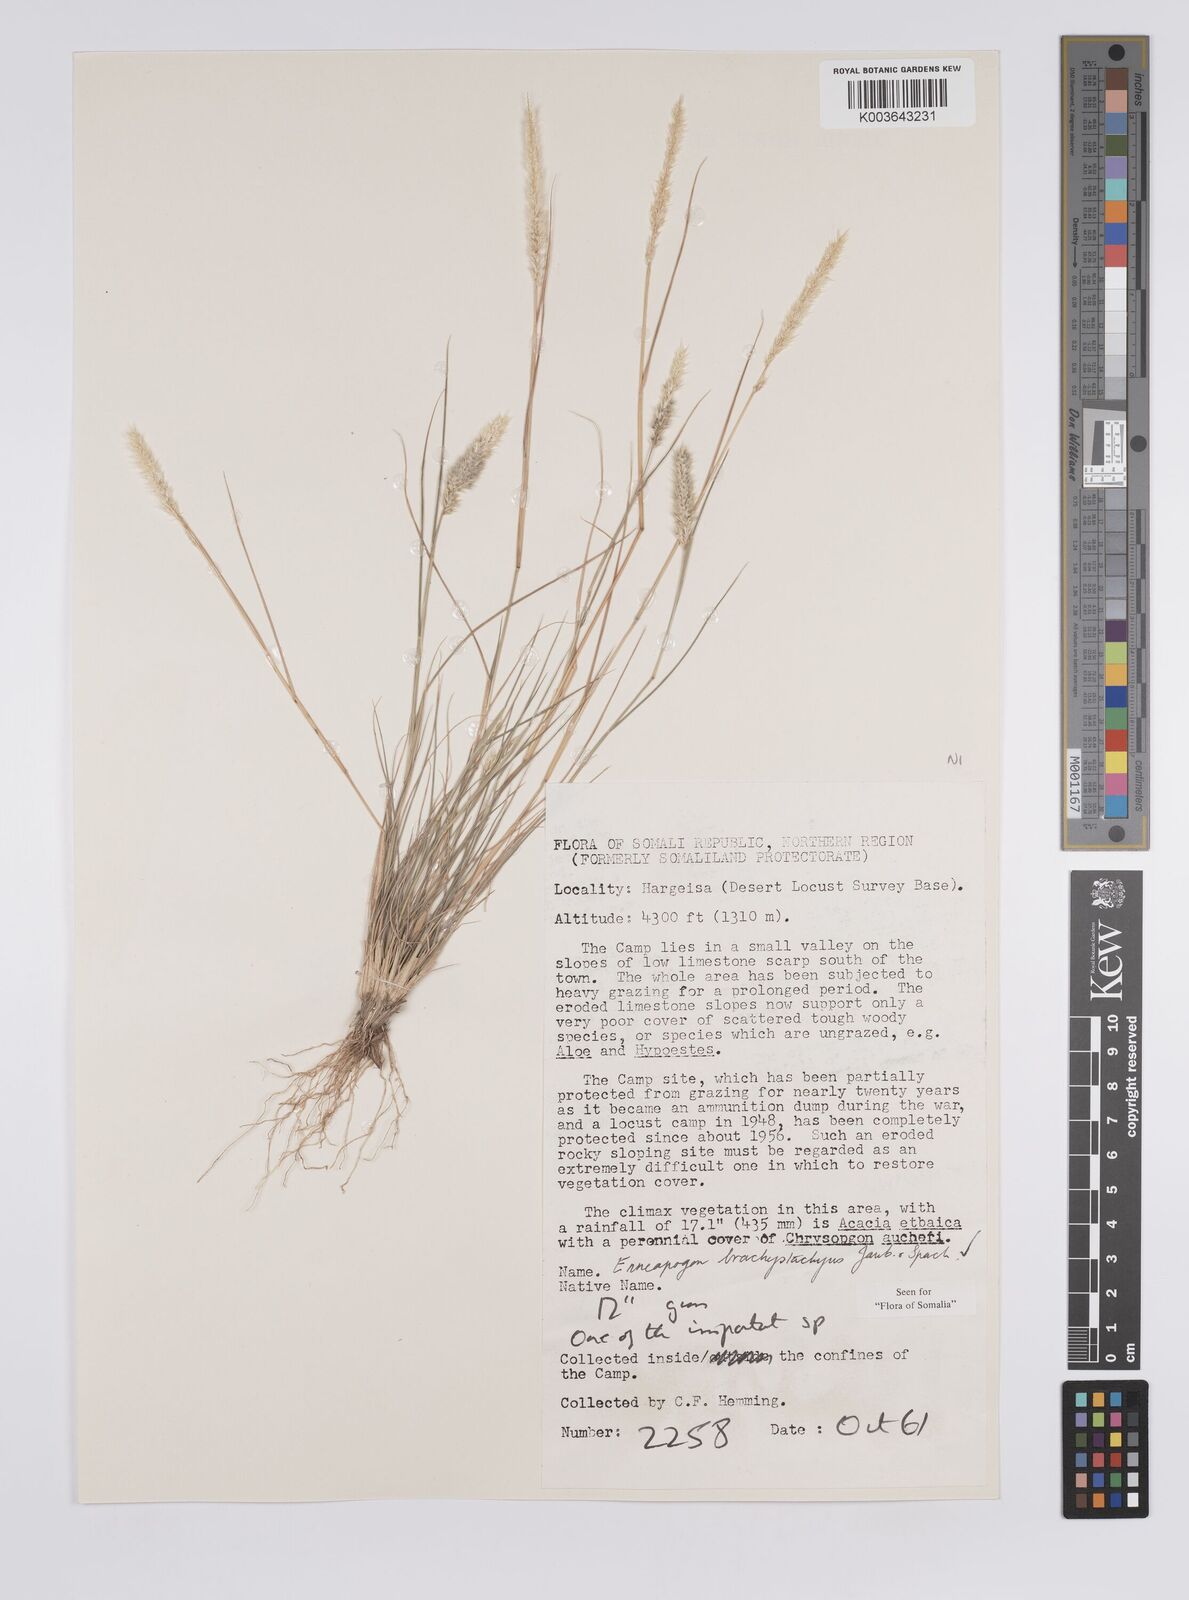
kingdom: Plantae
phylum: Tracheophyta
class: Liliopsida
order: Poales
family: Poaceae
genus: Enneapogon
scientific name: Enneapogon desvauxii
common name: Feather pappus grass
